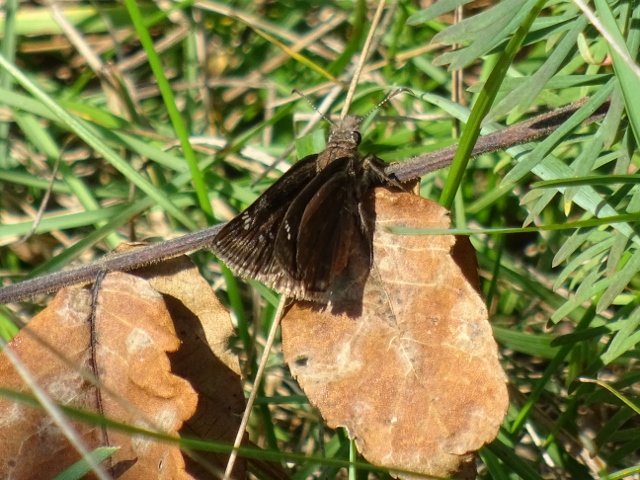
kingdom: Animalia
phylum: Arthropoda
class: Insecta
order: Lepidoptera
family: Hesperiidae
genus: Gesta
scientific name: Gesta
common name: Wild Indigo Duskywing
